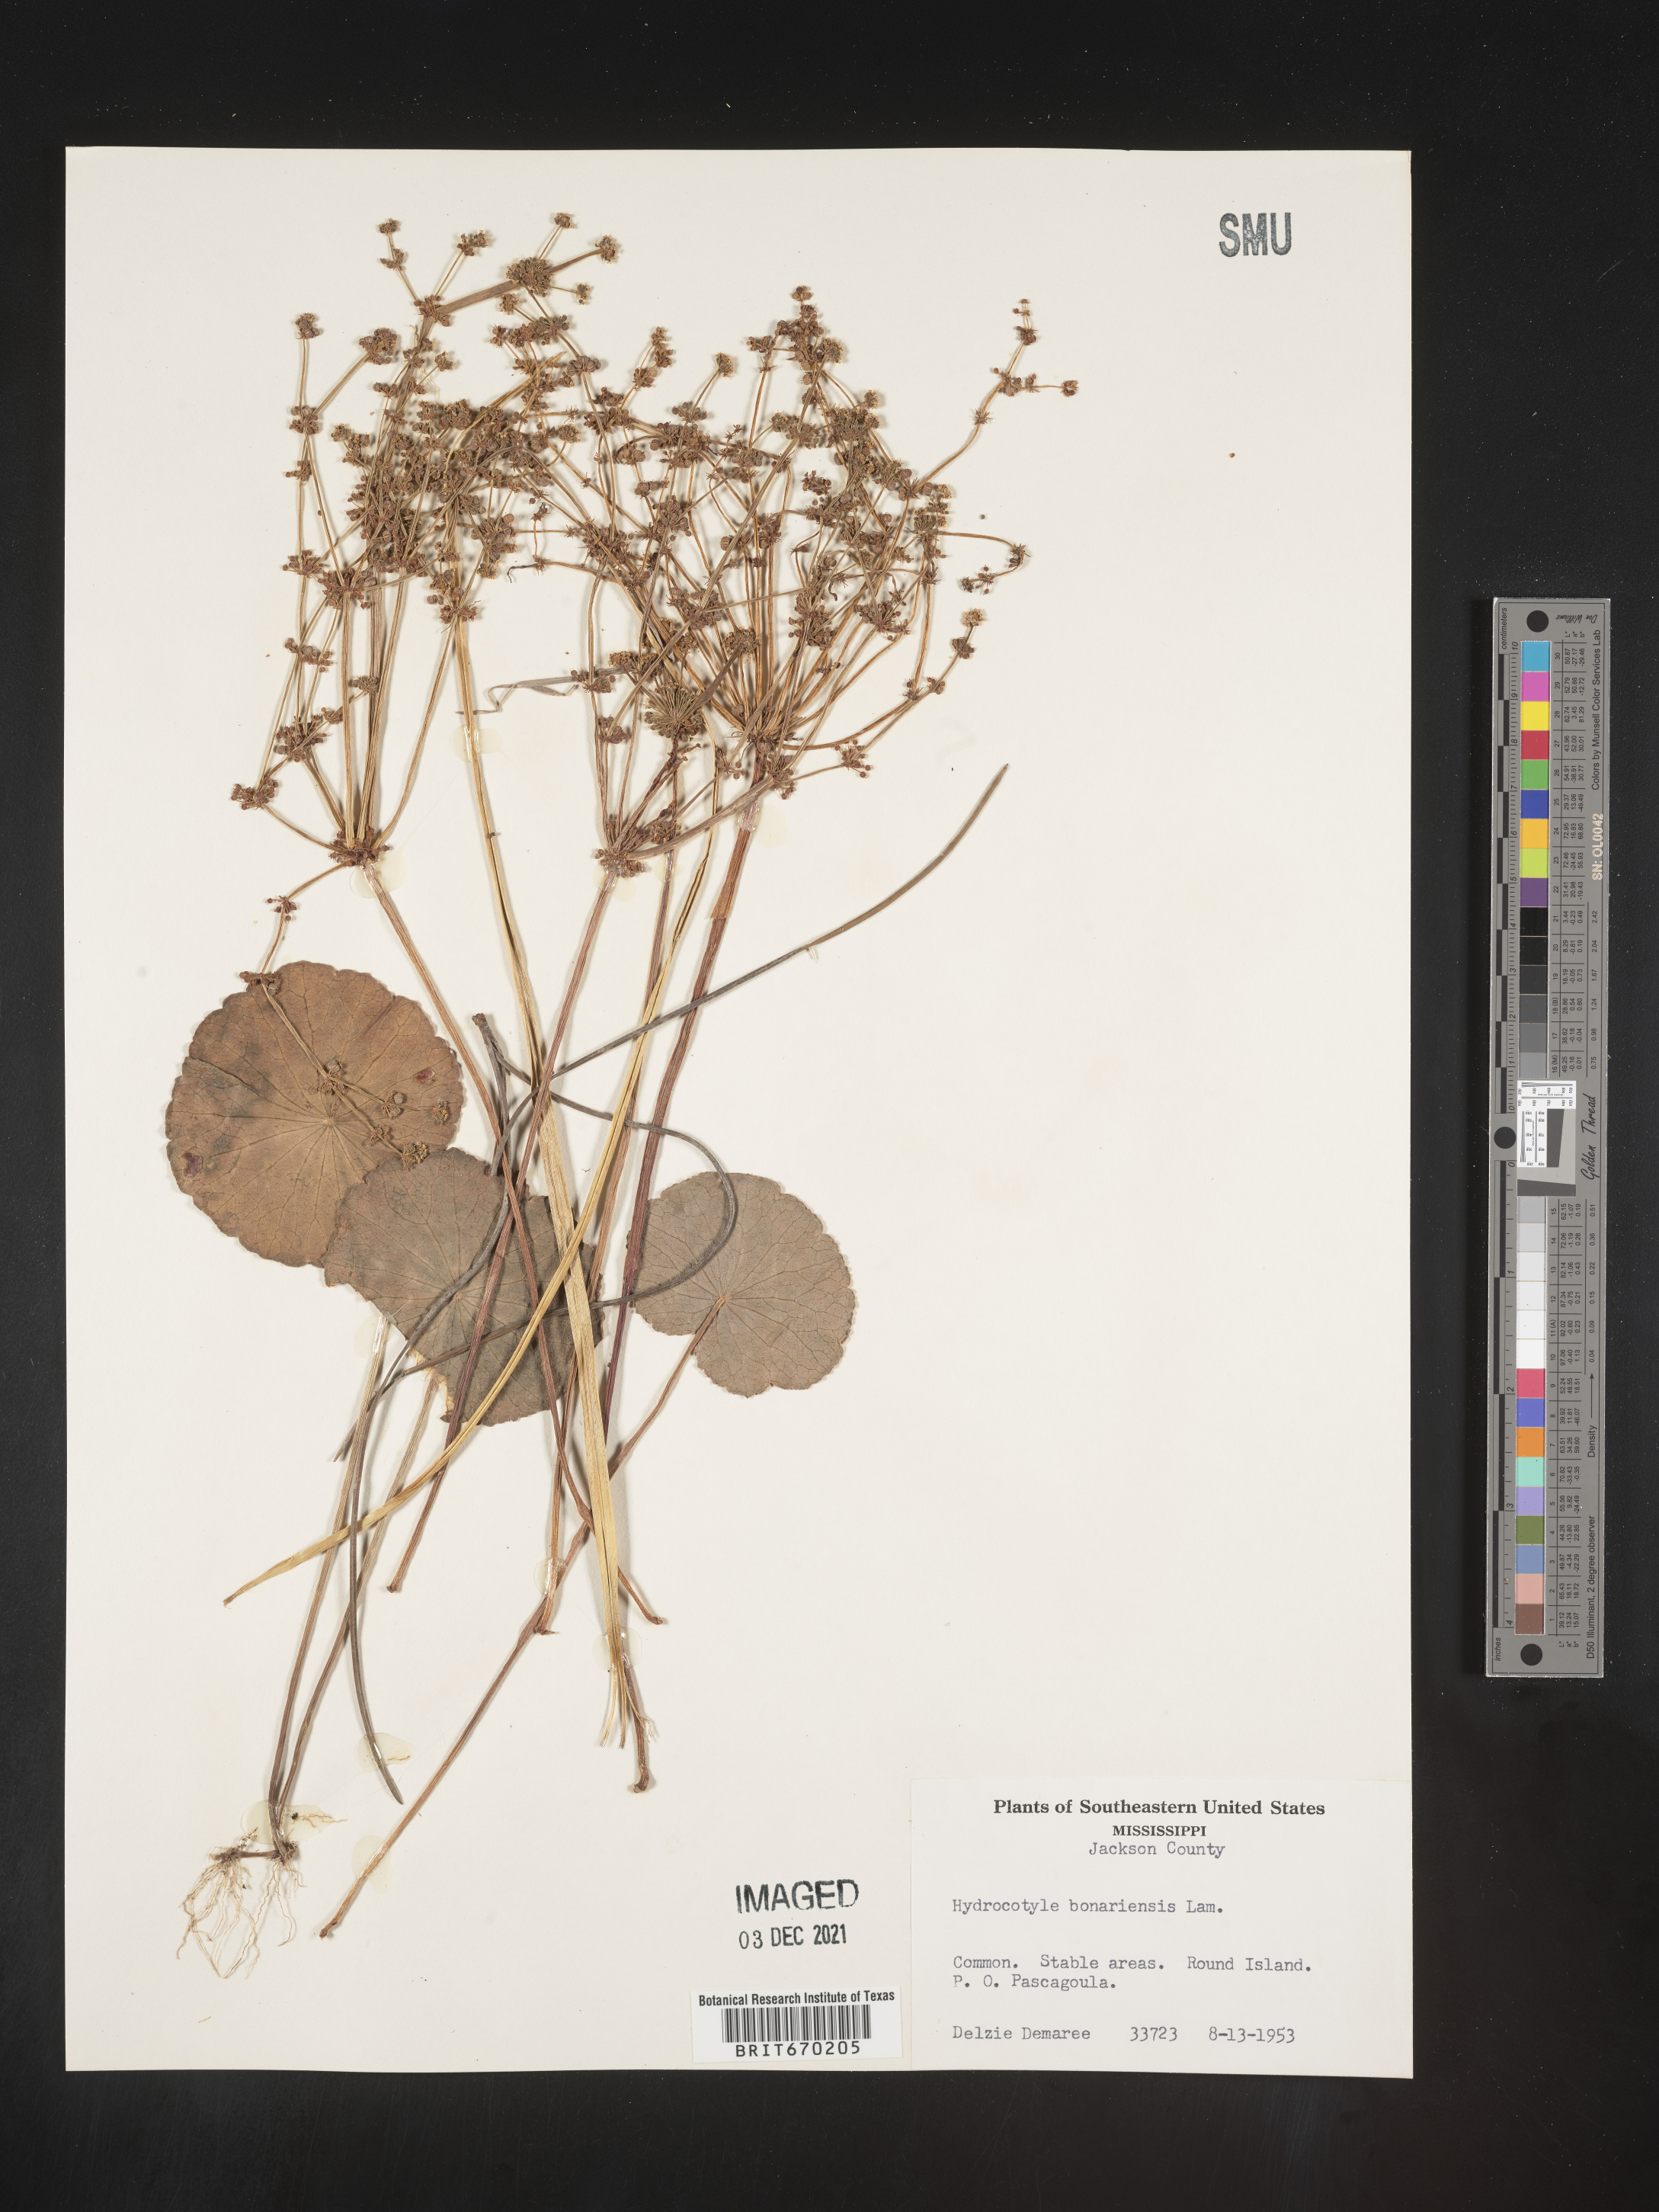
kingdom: Plantae
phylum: Tracheophyta
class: Magnoliopsida
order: Apiales
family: Araliaceae
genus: Hydrocotyle
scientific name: Hydrocotyle bonariensis
